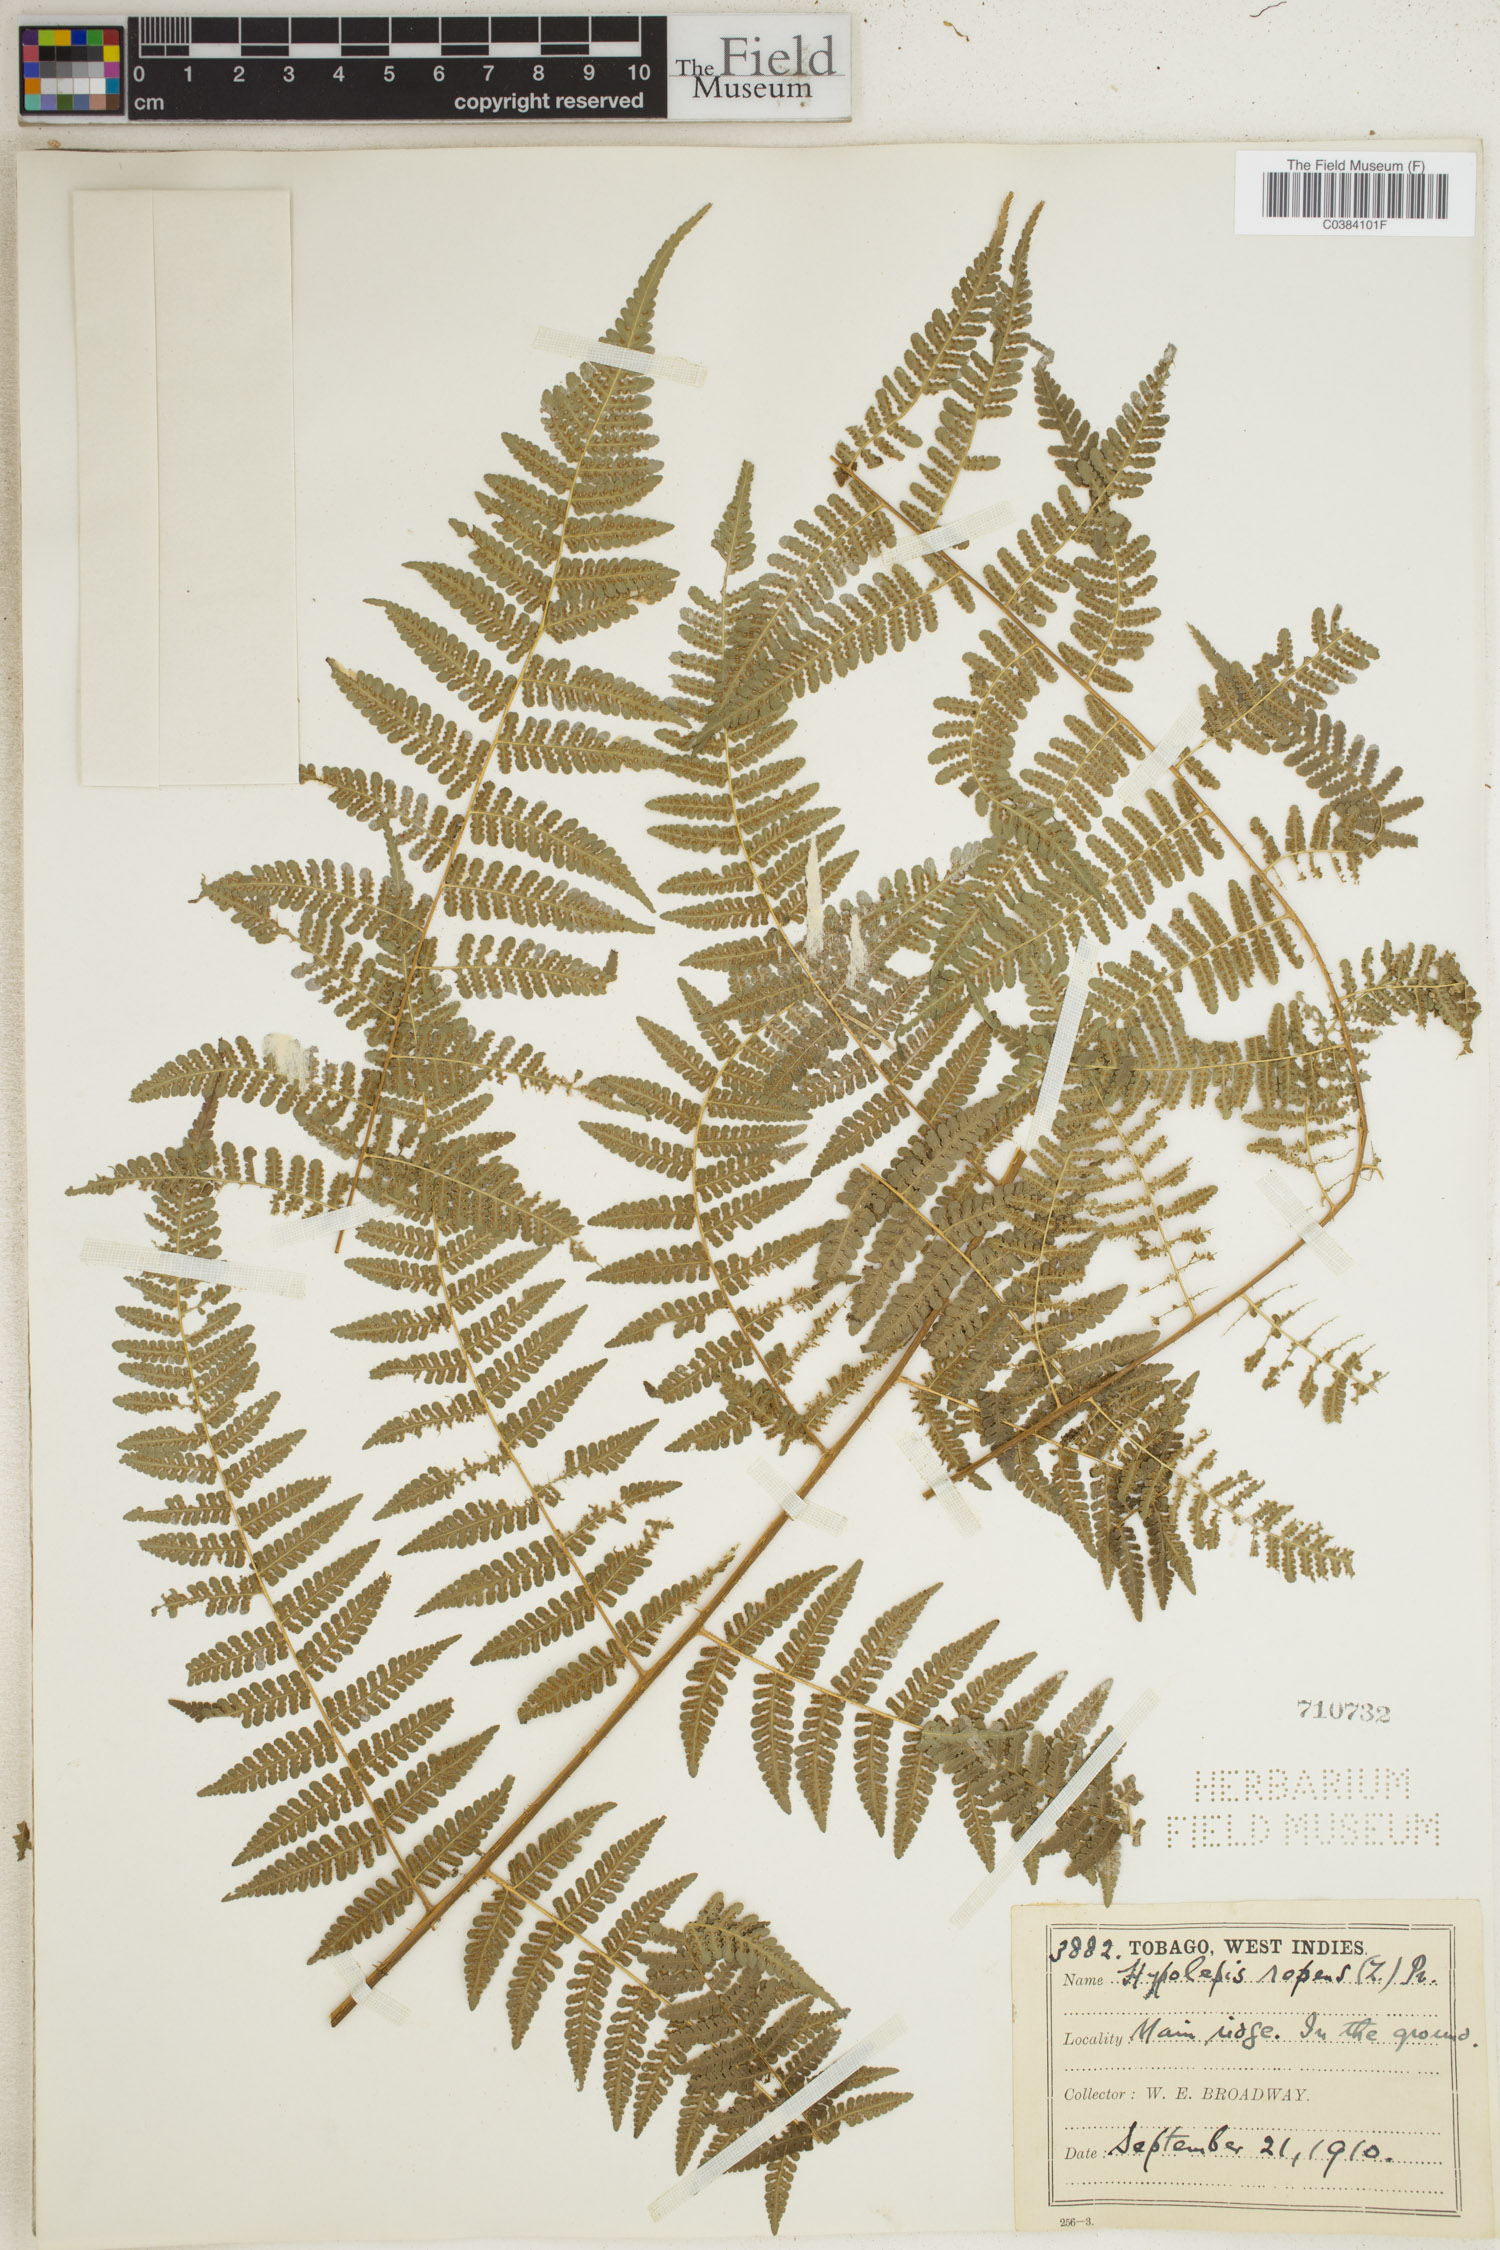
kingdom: Plantae
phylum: Tracheophyta
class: Polypodiopsida
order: Polypodiales
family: Dennstaedtiaceae
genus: Hypolepis
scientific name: Hypolepis repens
